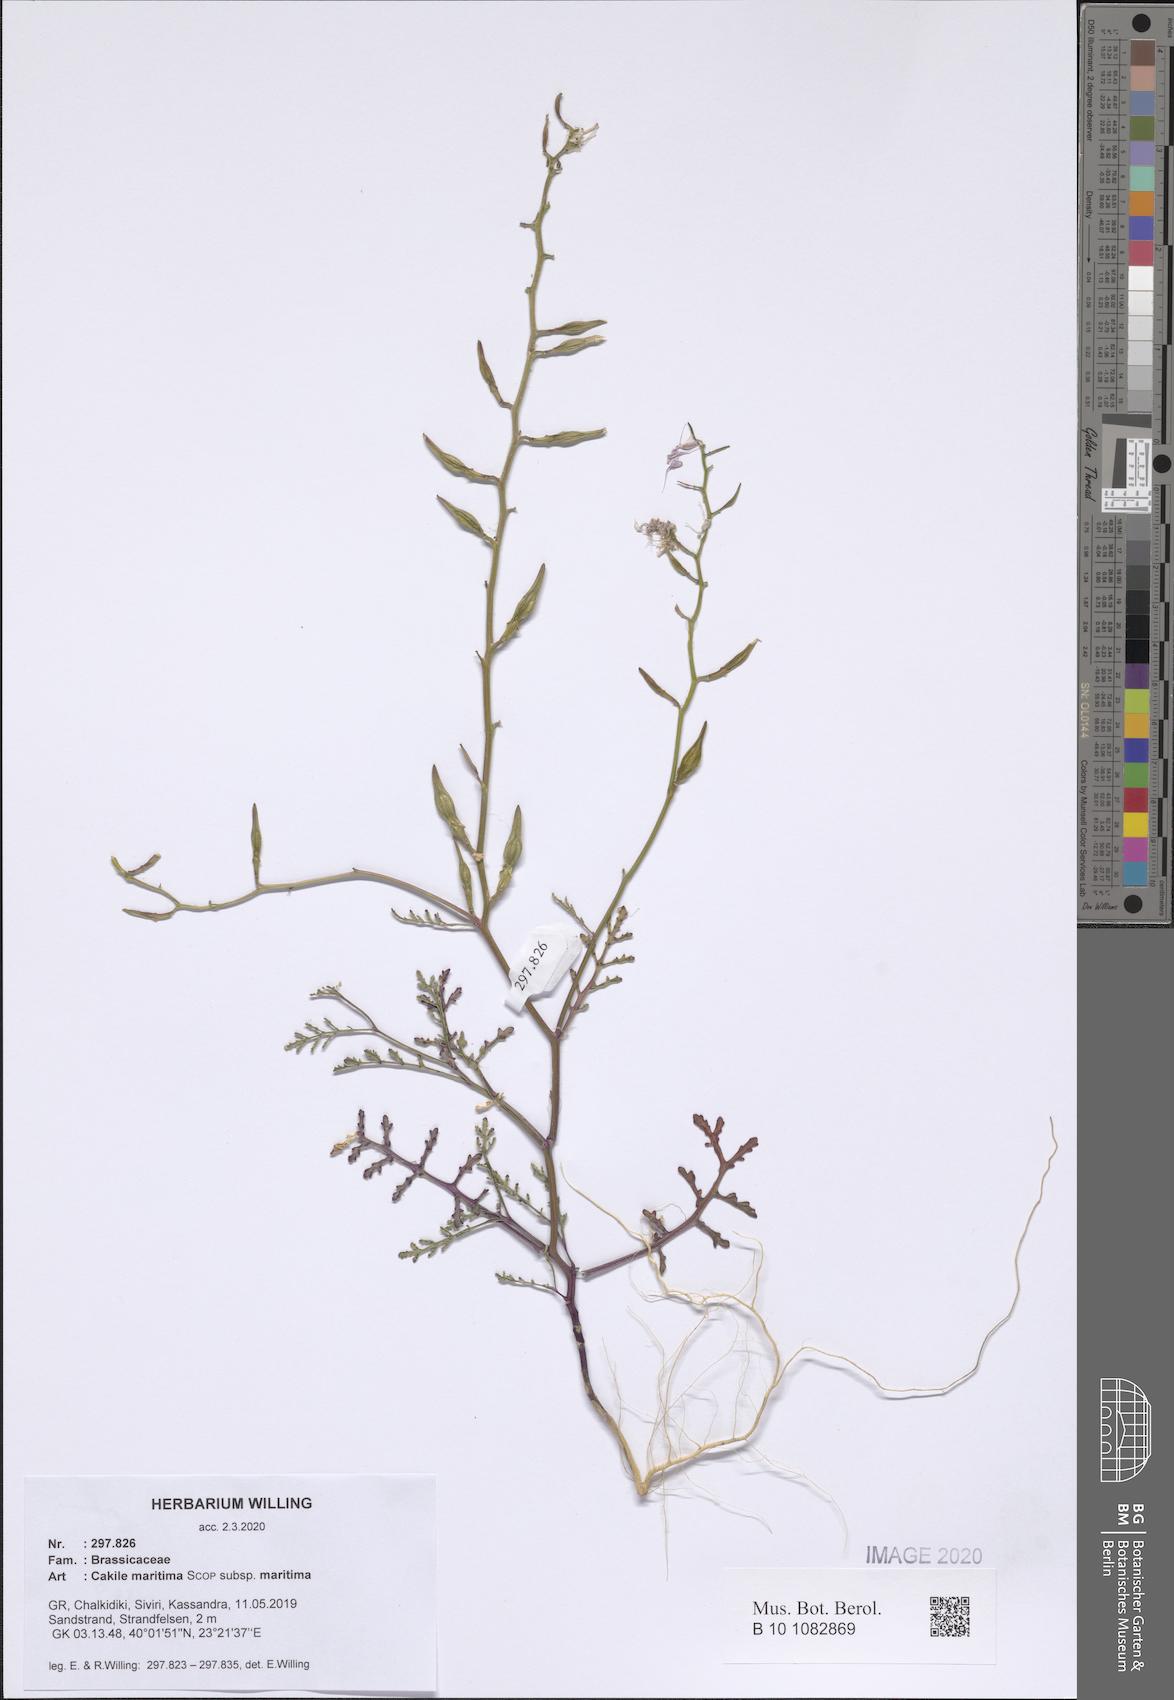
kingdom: Plantae
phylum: Tracheophyta
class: Magnoliopsida
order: Brassicales
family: Brassicaceae
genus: Cakile
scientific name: Cakile maritima
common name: Sea rocket
